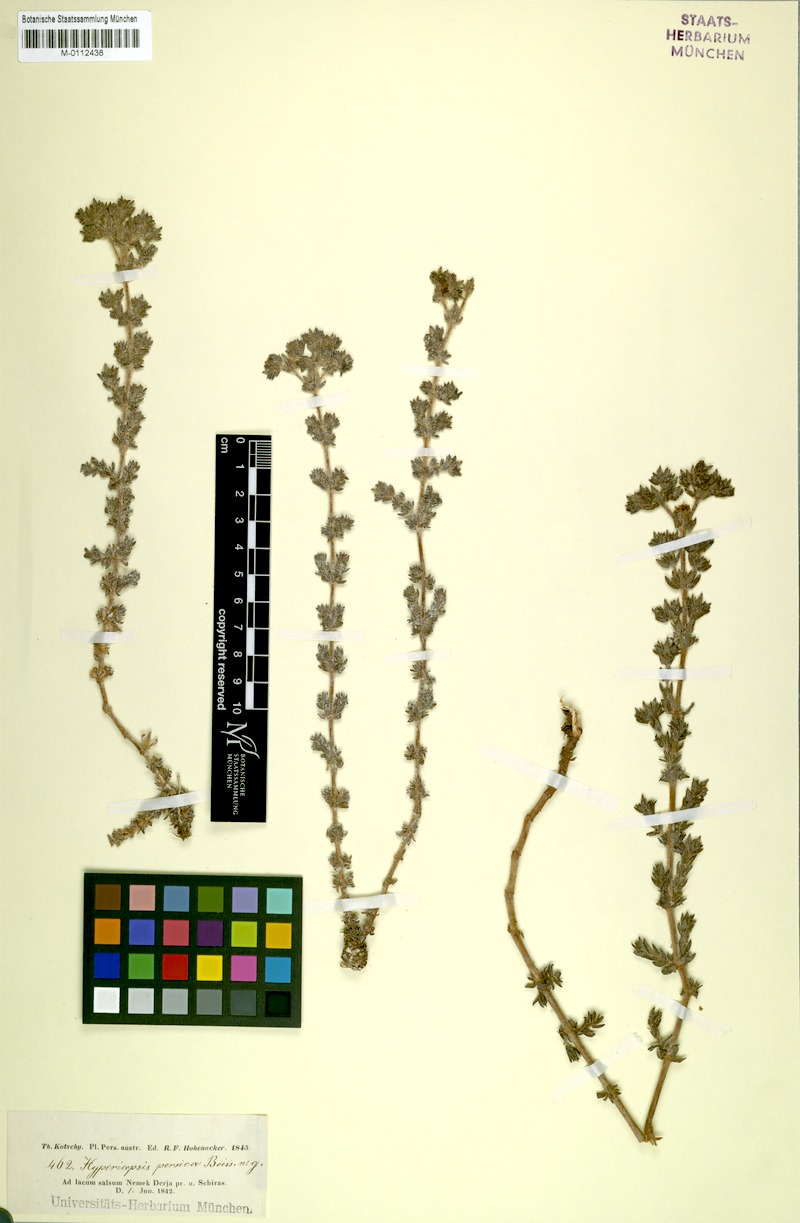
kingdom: Plantae
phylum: Tracheophyta
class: Magnoliopsida
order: Caryophyllales
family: Frankeniaceae
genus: Frankenia
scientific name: Frankenia persica
